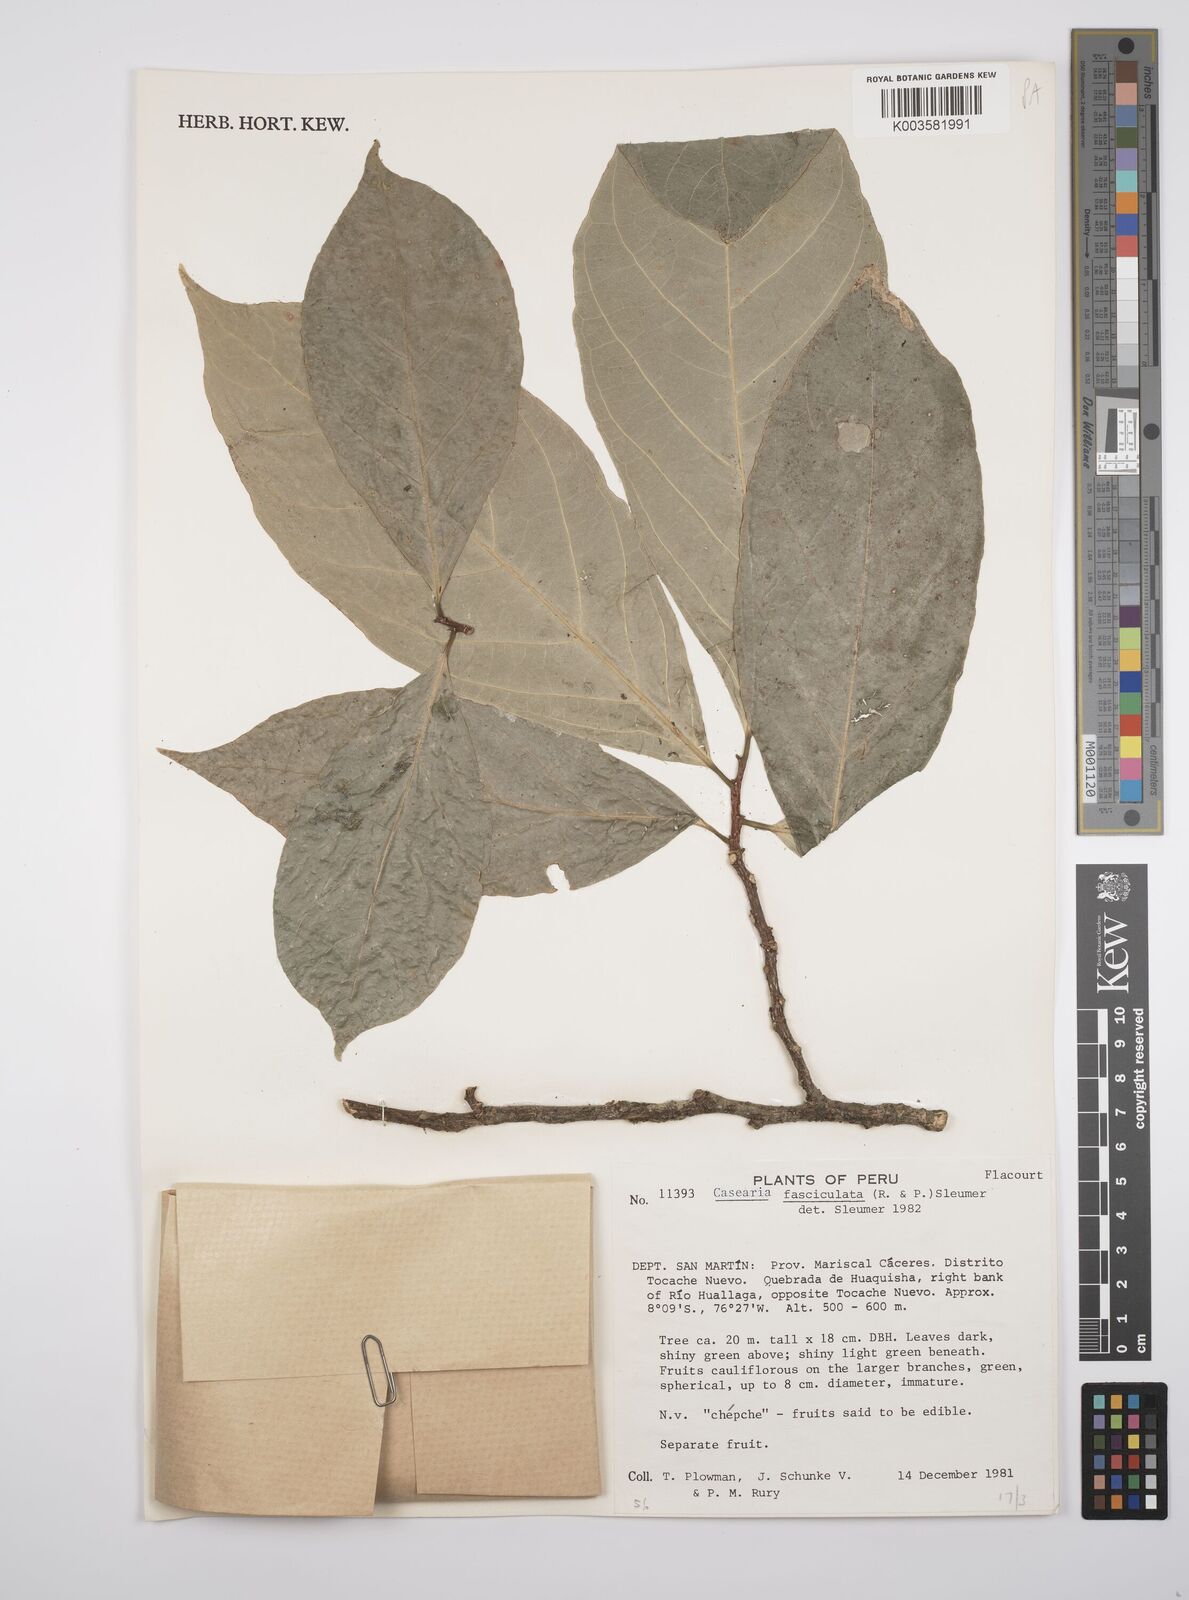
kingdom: Plantae
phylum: Tracheophyta
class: Magnoliopsida
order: Malpighiales
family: Salicaceae
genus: Casearia
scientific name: Casearia
